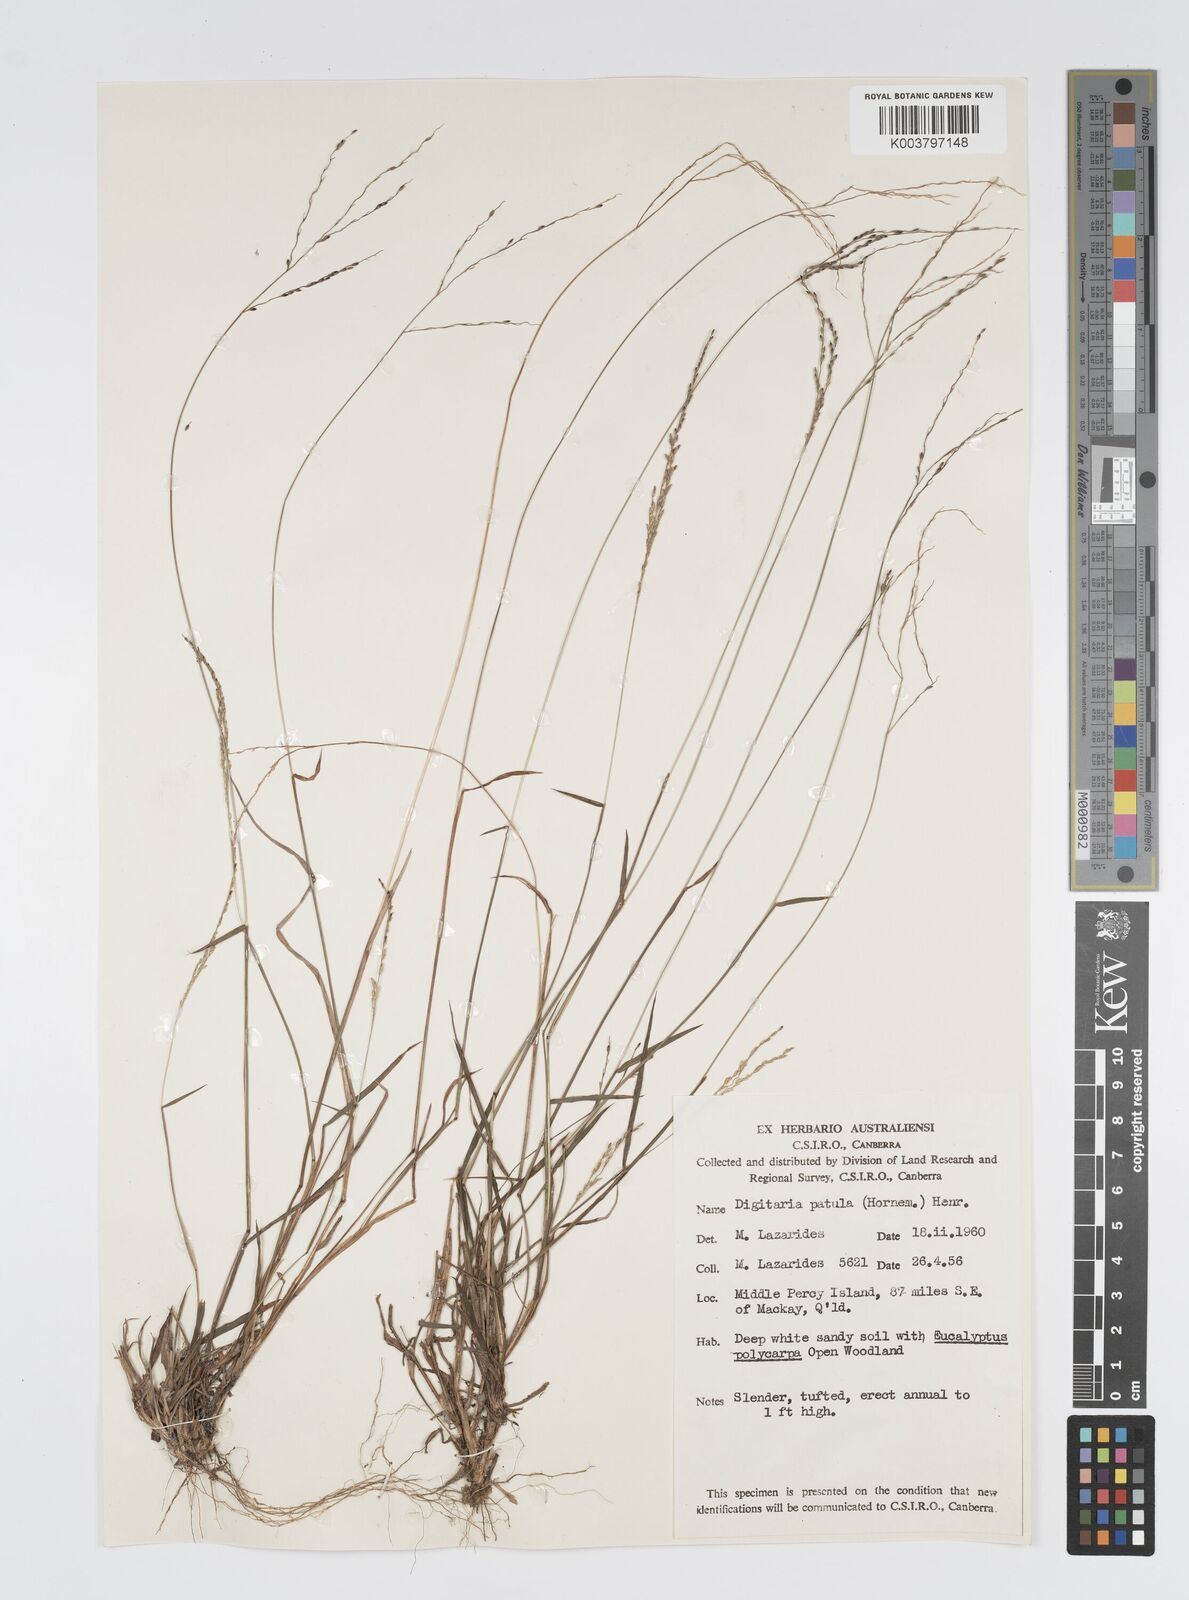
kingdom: Plantae
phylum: Tracheophyta
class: Liliopsida
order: Poales
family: Poaceae
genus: Digitaria
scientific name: Digitaria spec
